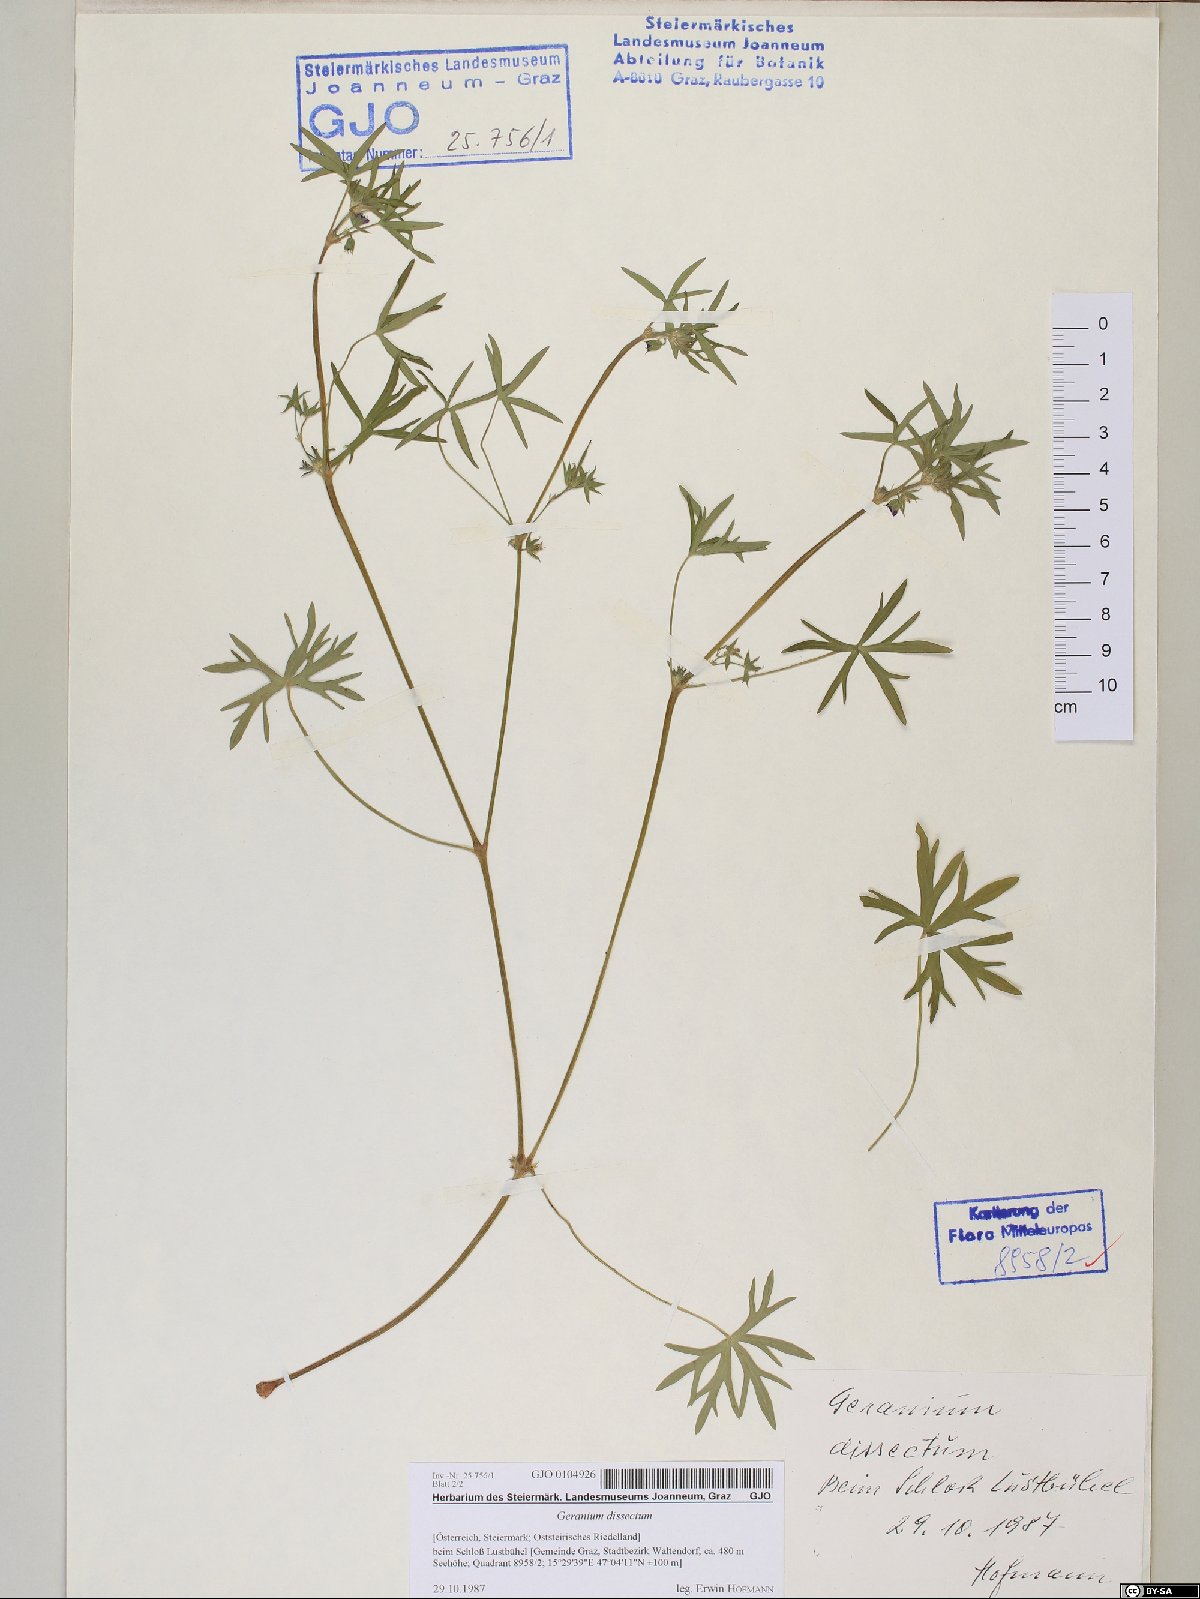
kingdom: Plantae
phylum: Tracheophyta
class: Magnoliopsida
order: Geraniales
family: Geraniaceae
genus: Geranium
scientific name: Geranium dissectum
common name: Cut-leaved crane's-bill
